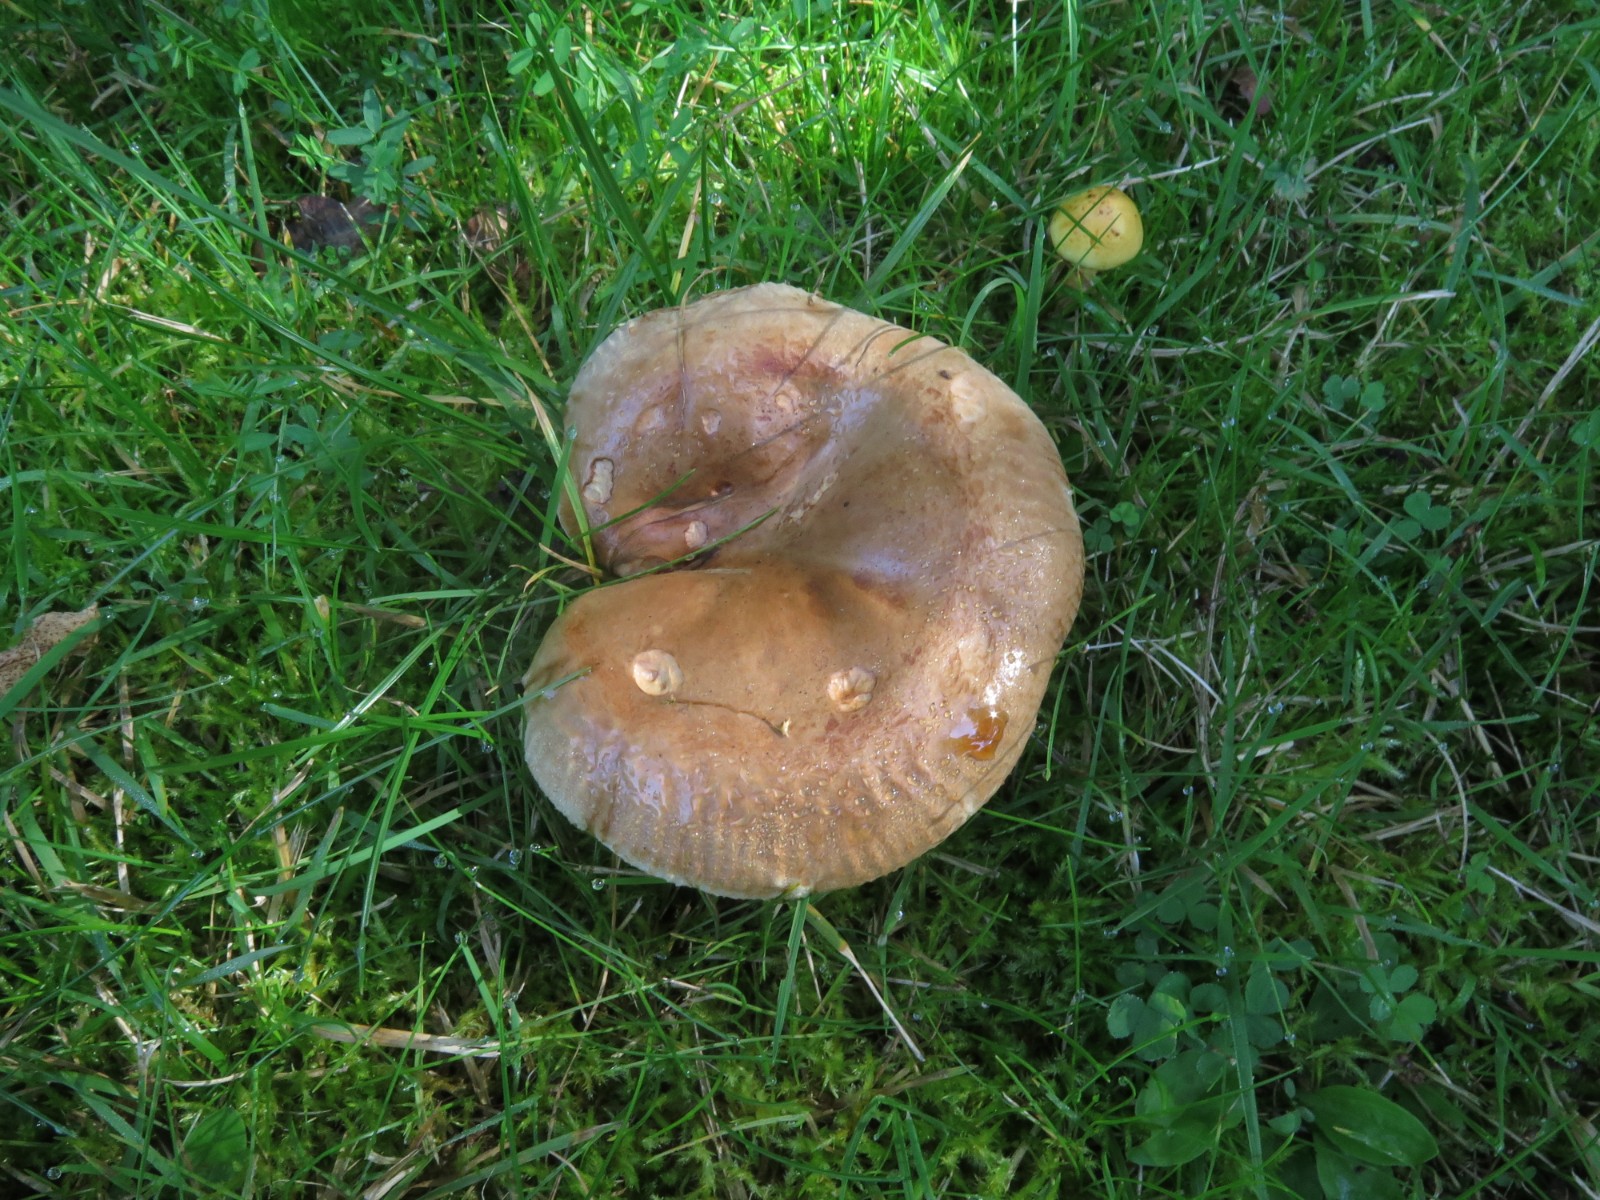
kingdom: Fungi
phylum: Basidiomycota
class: Agaricomycetes
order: Boletales
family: Paxillaceae
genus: Paxillus
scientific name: Paxillus obscurisporus
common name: mahognisporet netbladhat
